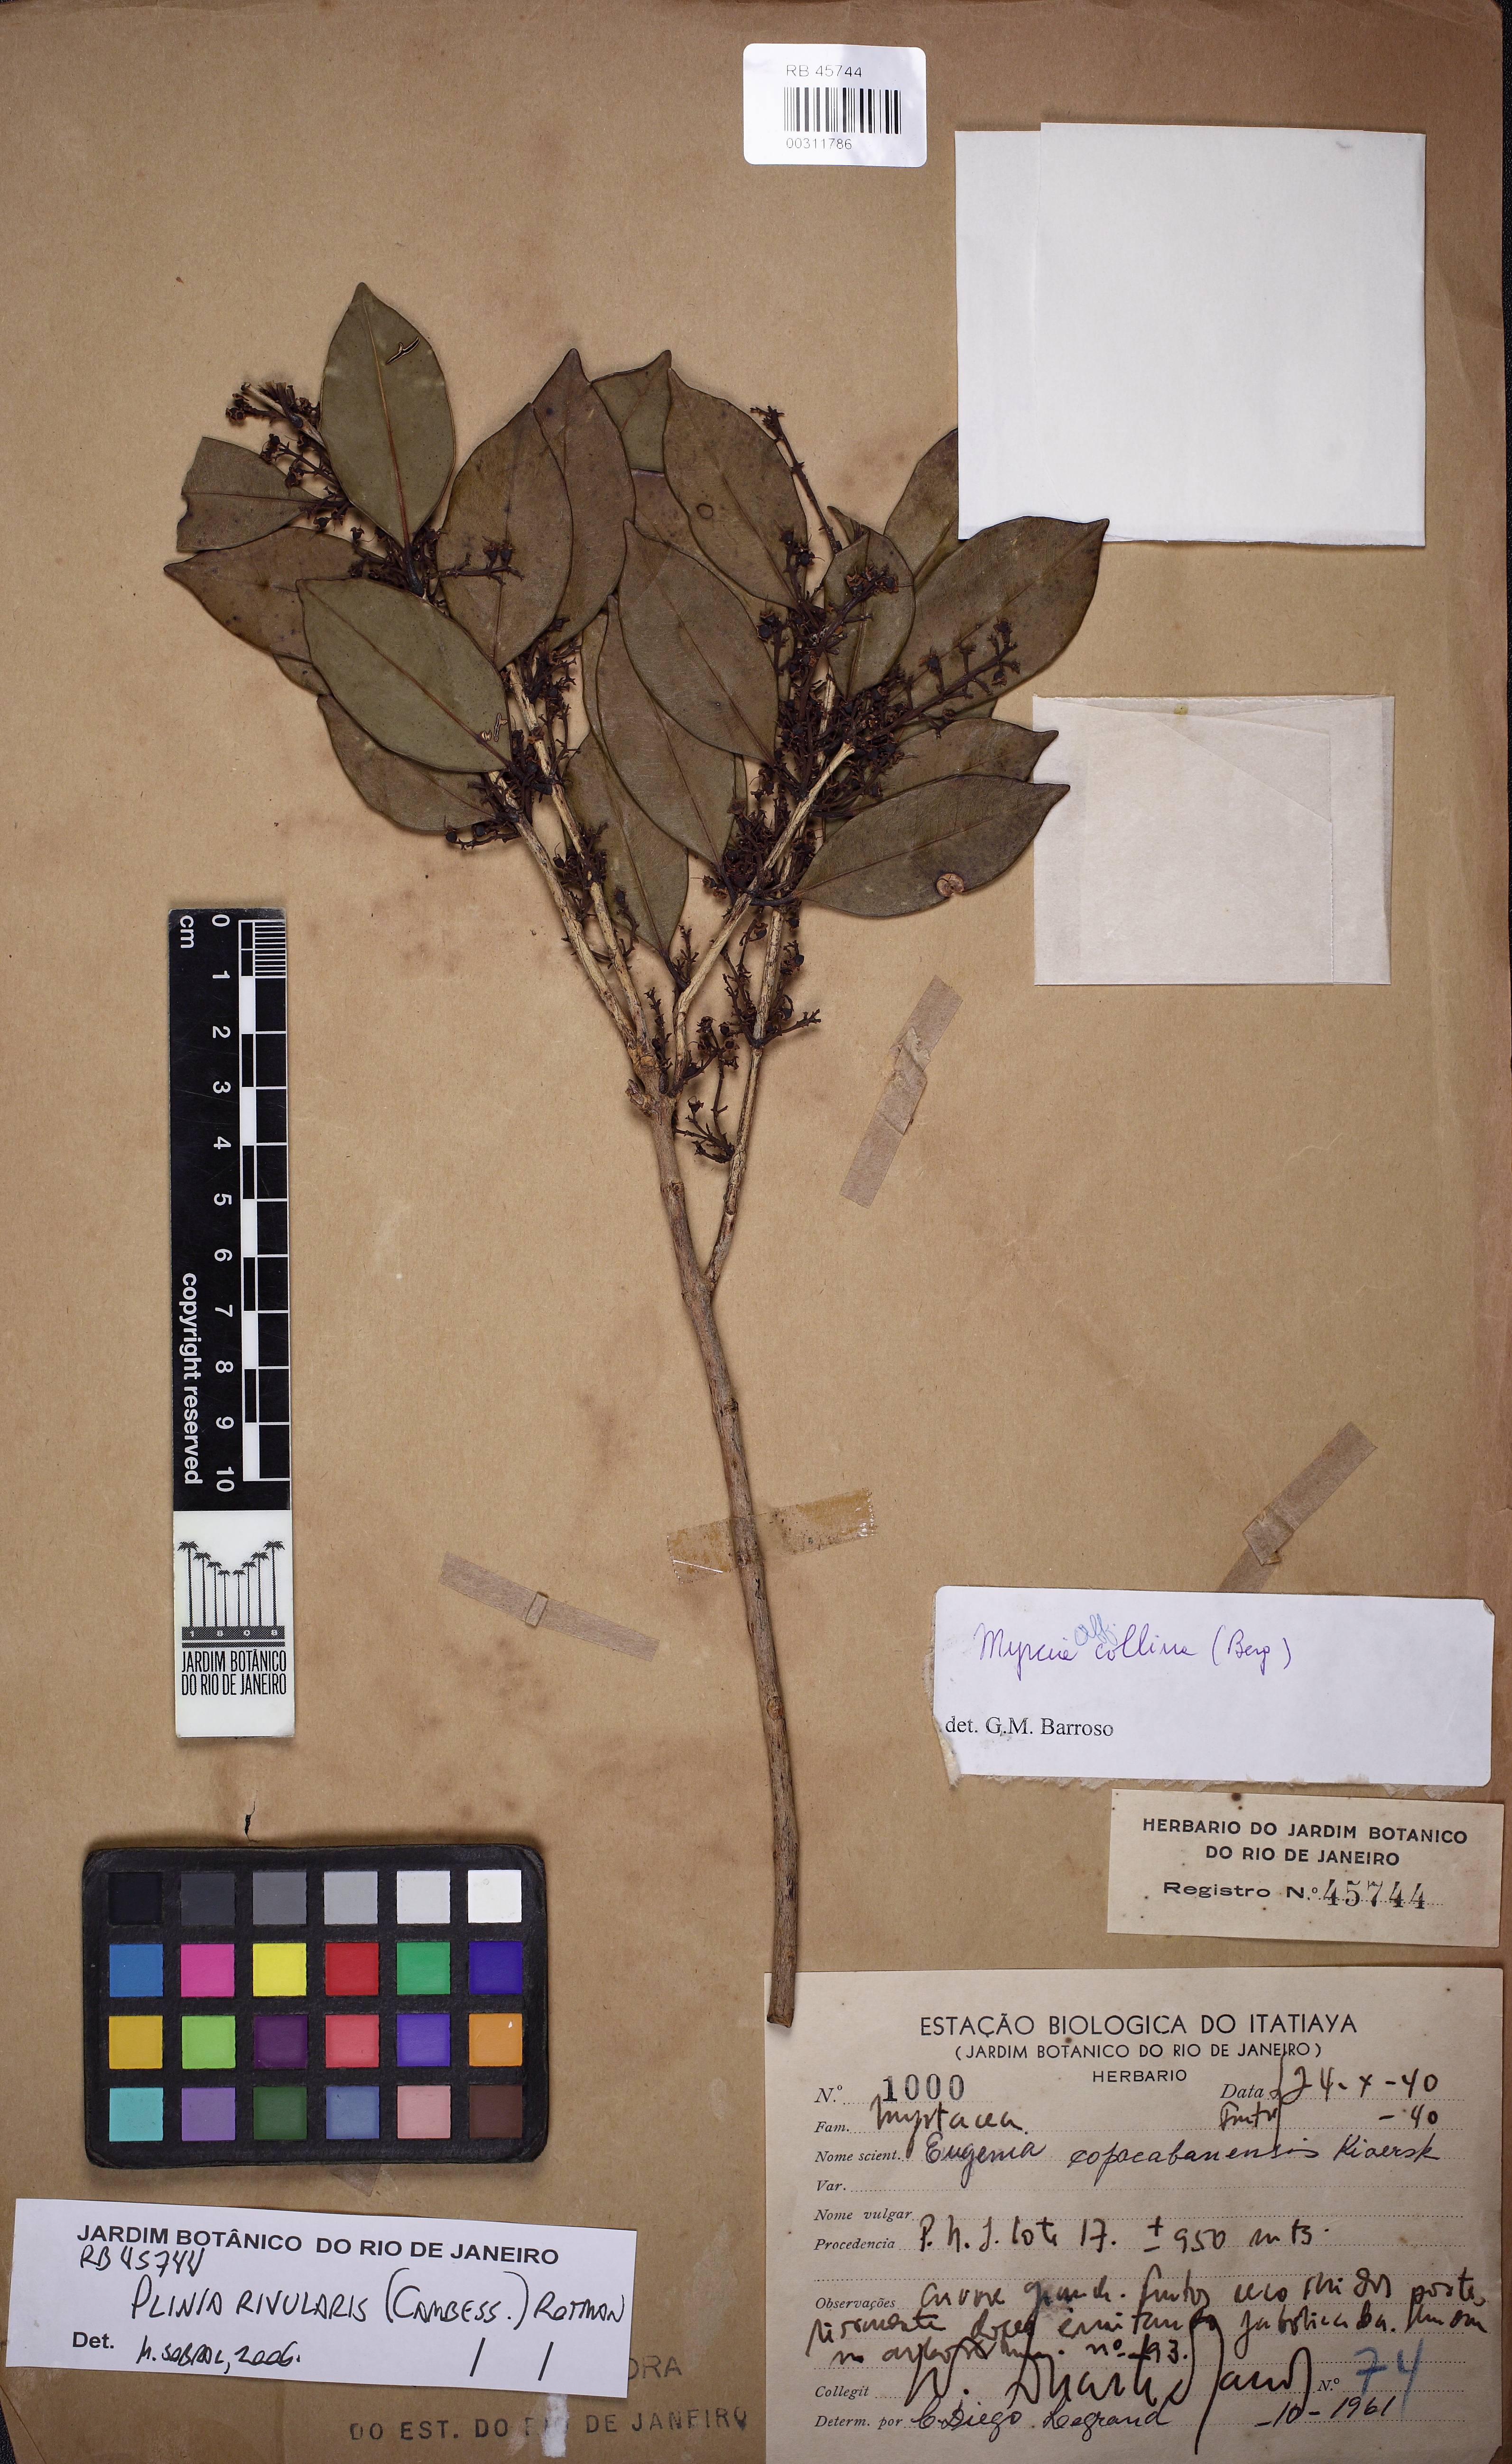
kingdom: Plantae
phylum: Tracheophyta
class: Magnoliopsida
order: Myrtales
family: Myrtaceae
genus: Plinia
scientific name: Plinia rivularis
